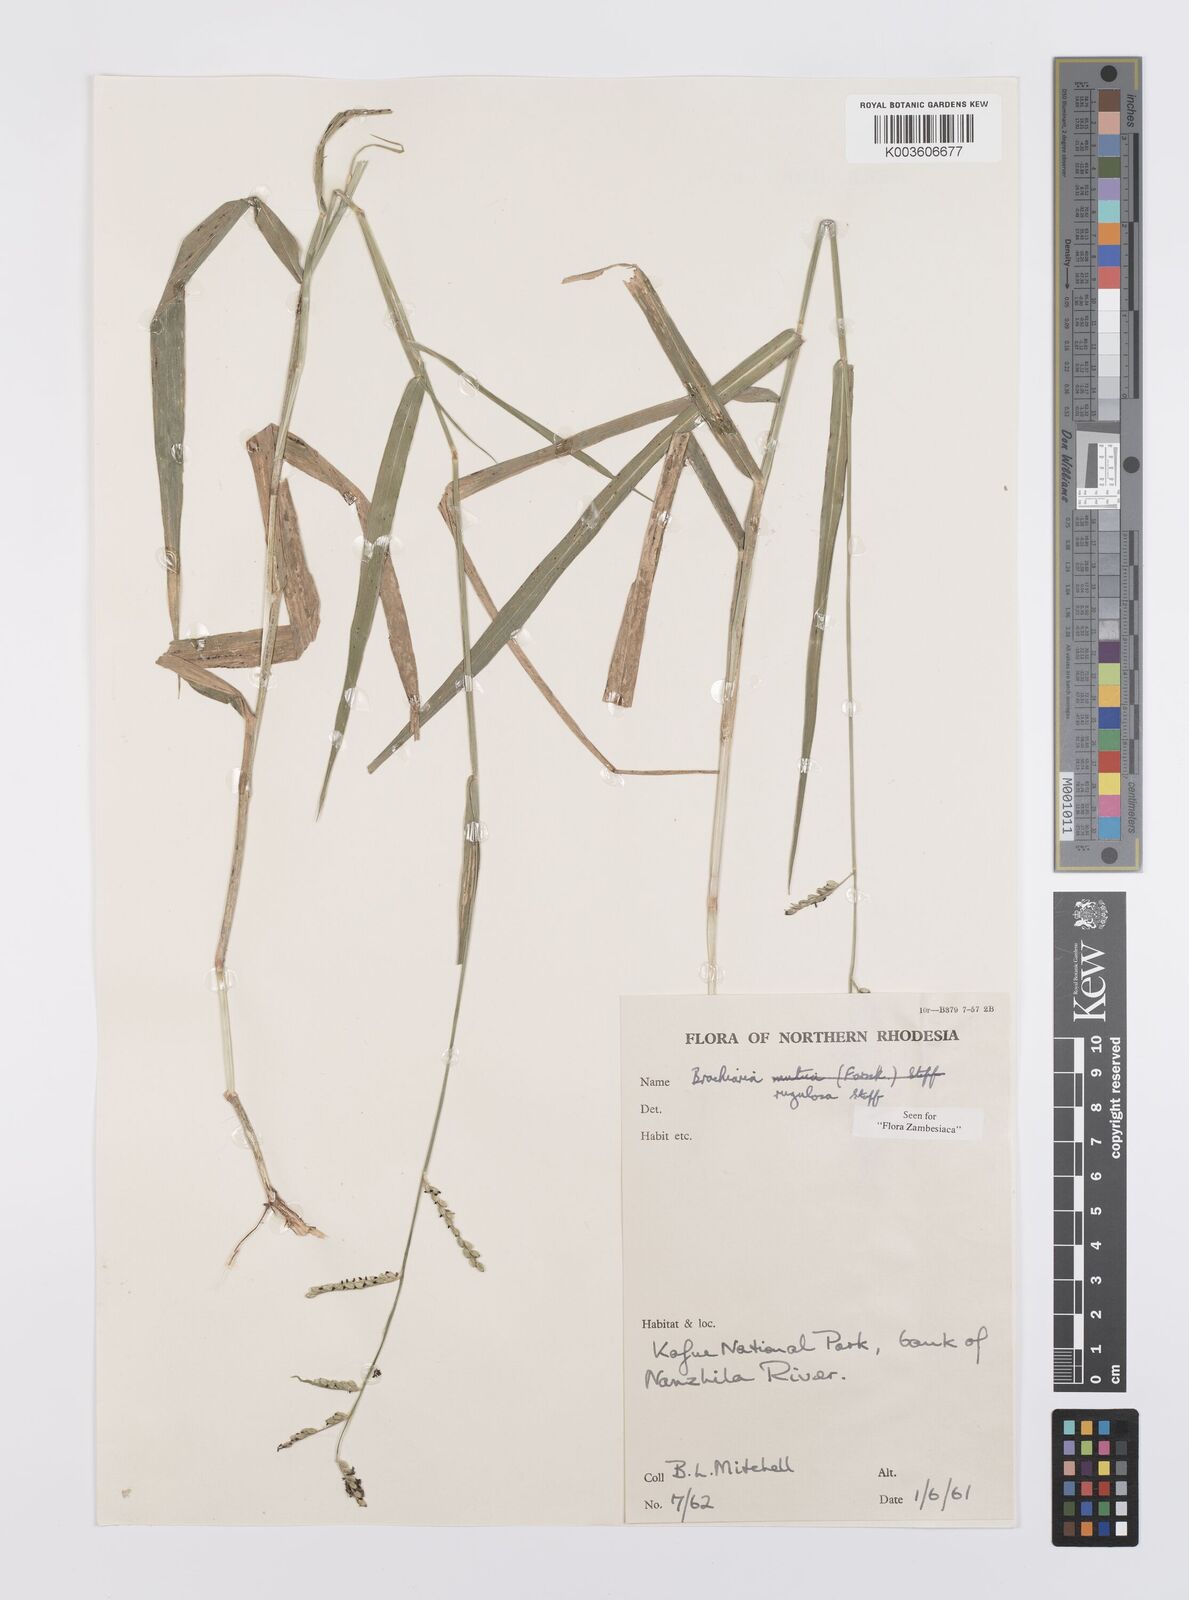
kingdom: Plantae
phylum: Tracheophyta
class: Liliopsida
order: Poales
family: Poaceae
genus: Urochloa
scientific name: Urochloa rugulosa
